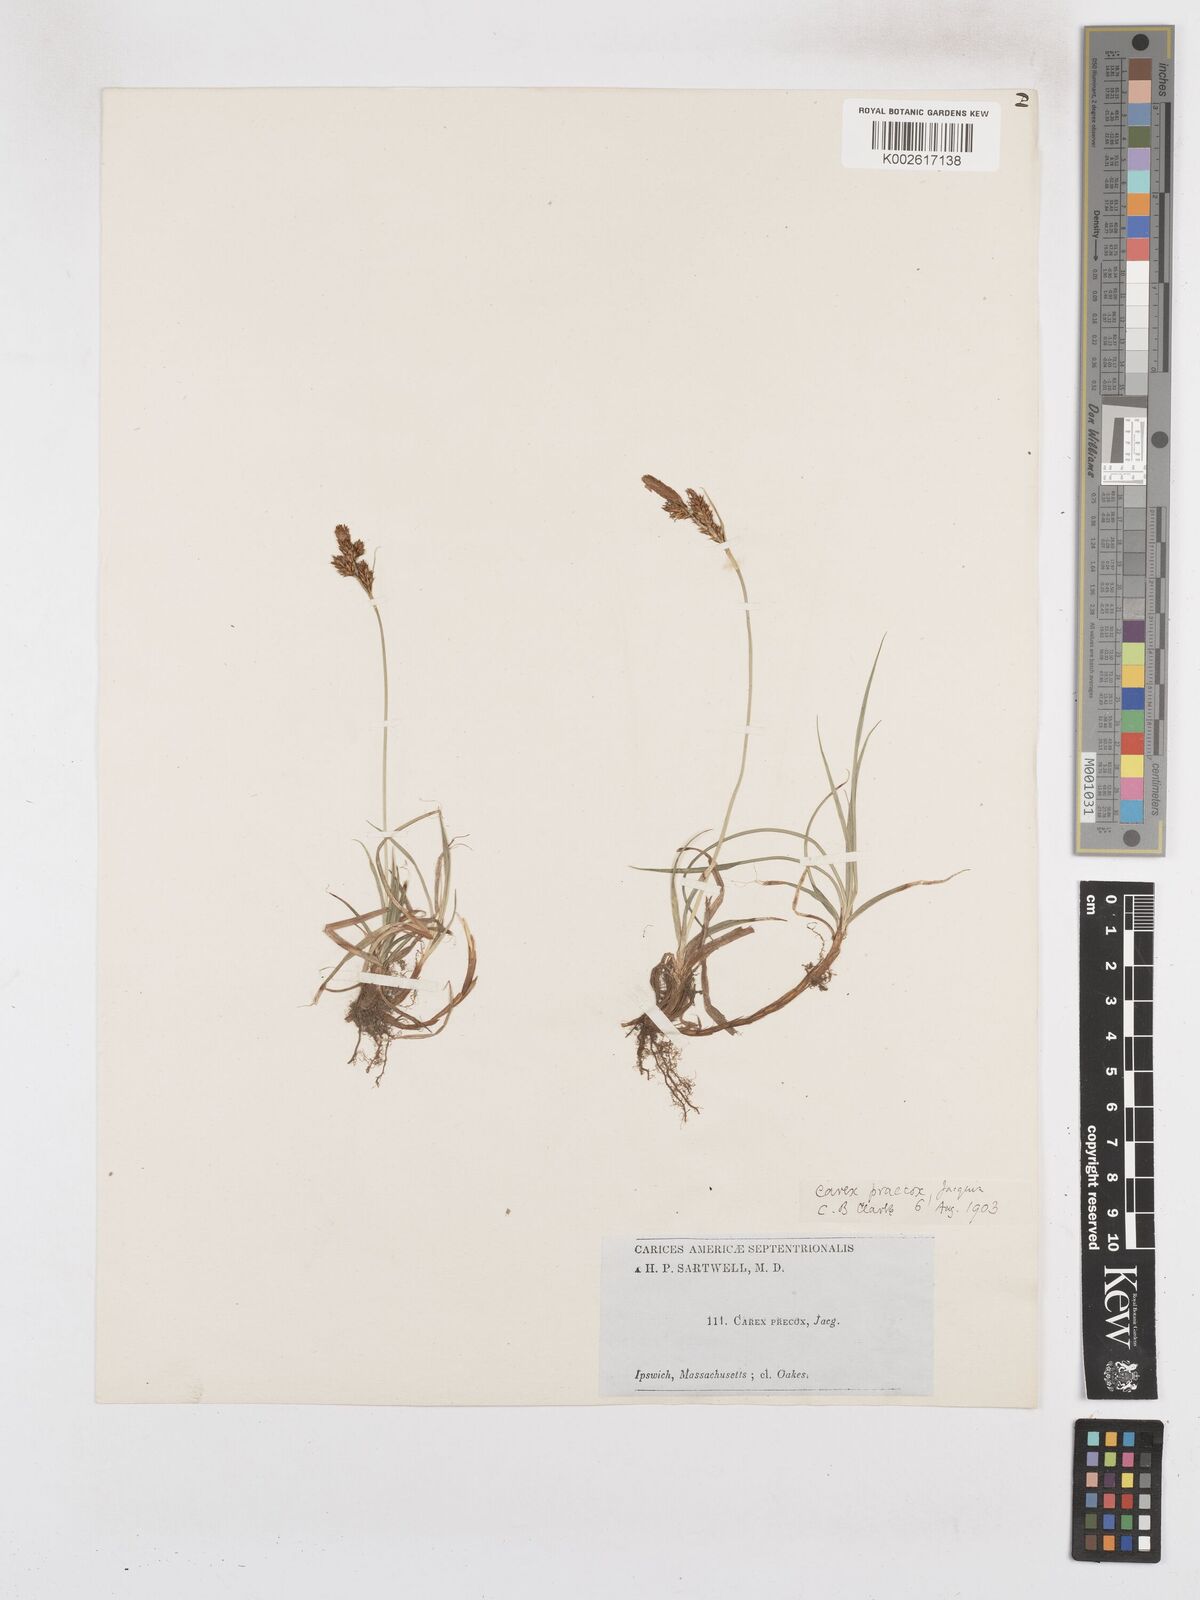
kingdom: Plantae
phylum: Tracheophyta
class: Liliopsida
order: Poales
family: Cyperaceae
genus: Carex
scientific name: Carex caryophyllea
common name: Spring sedge
